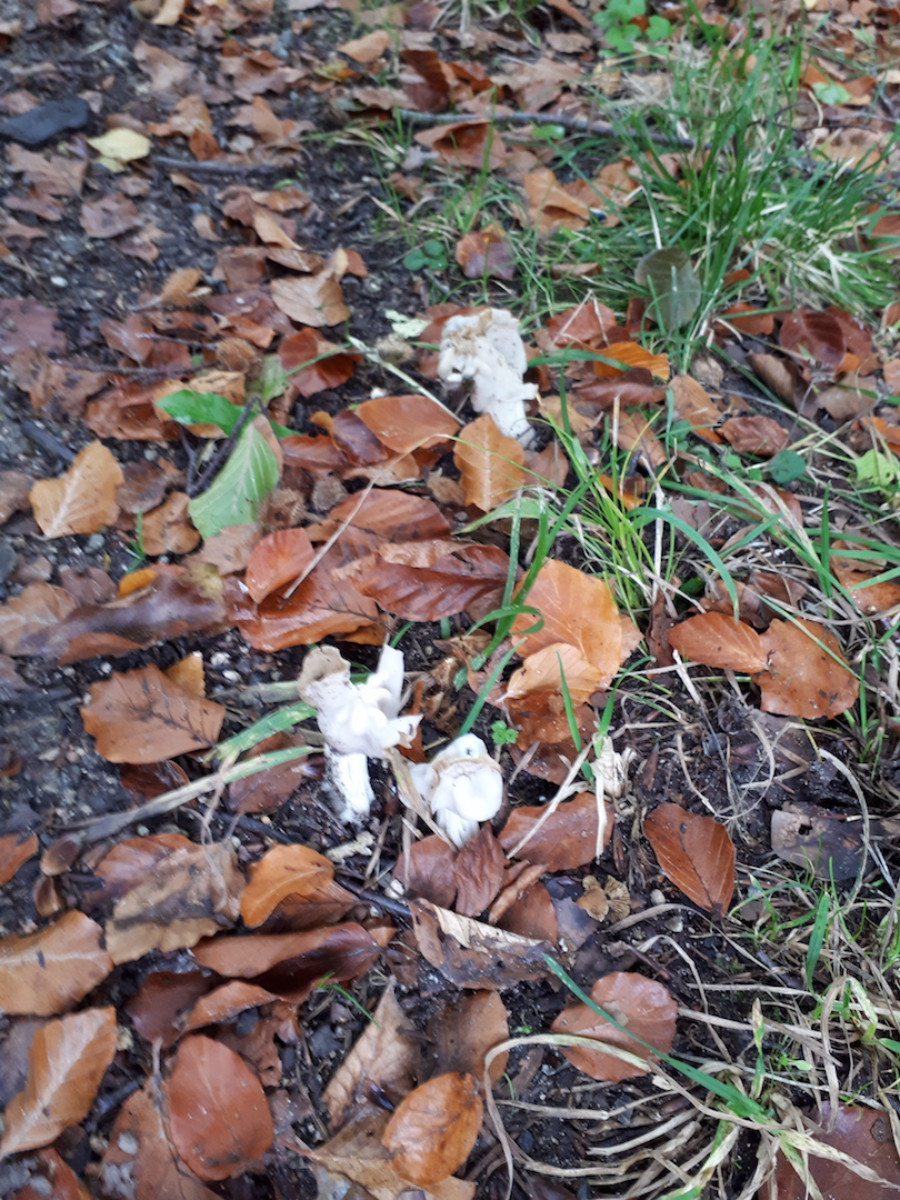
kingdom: Fungi
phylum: Ascomycota
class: Pezizomycetes
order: Pezizales
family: Helvellaceae
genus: Helvella
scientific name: Helvella crispa
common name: kruset foldhat
